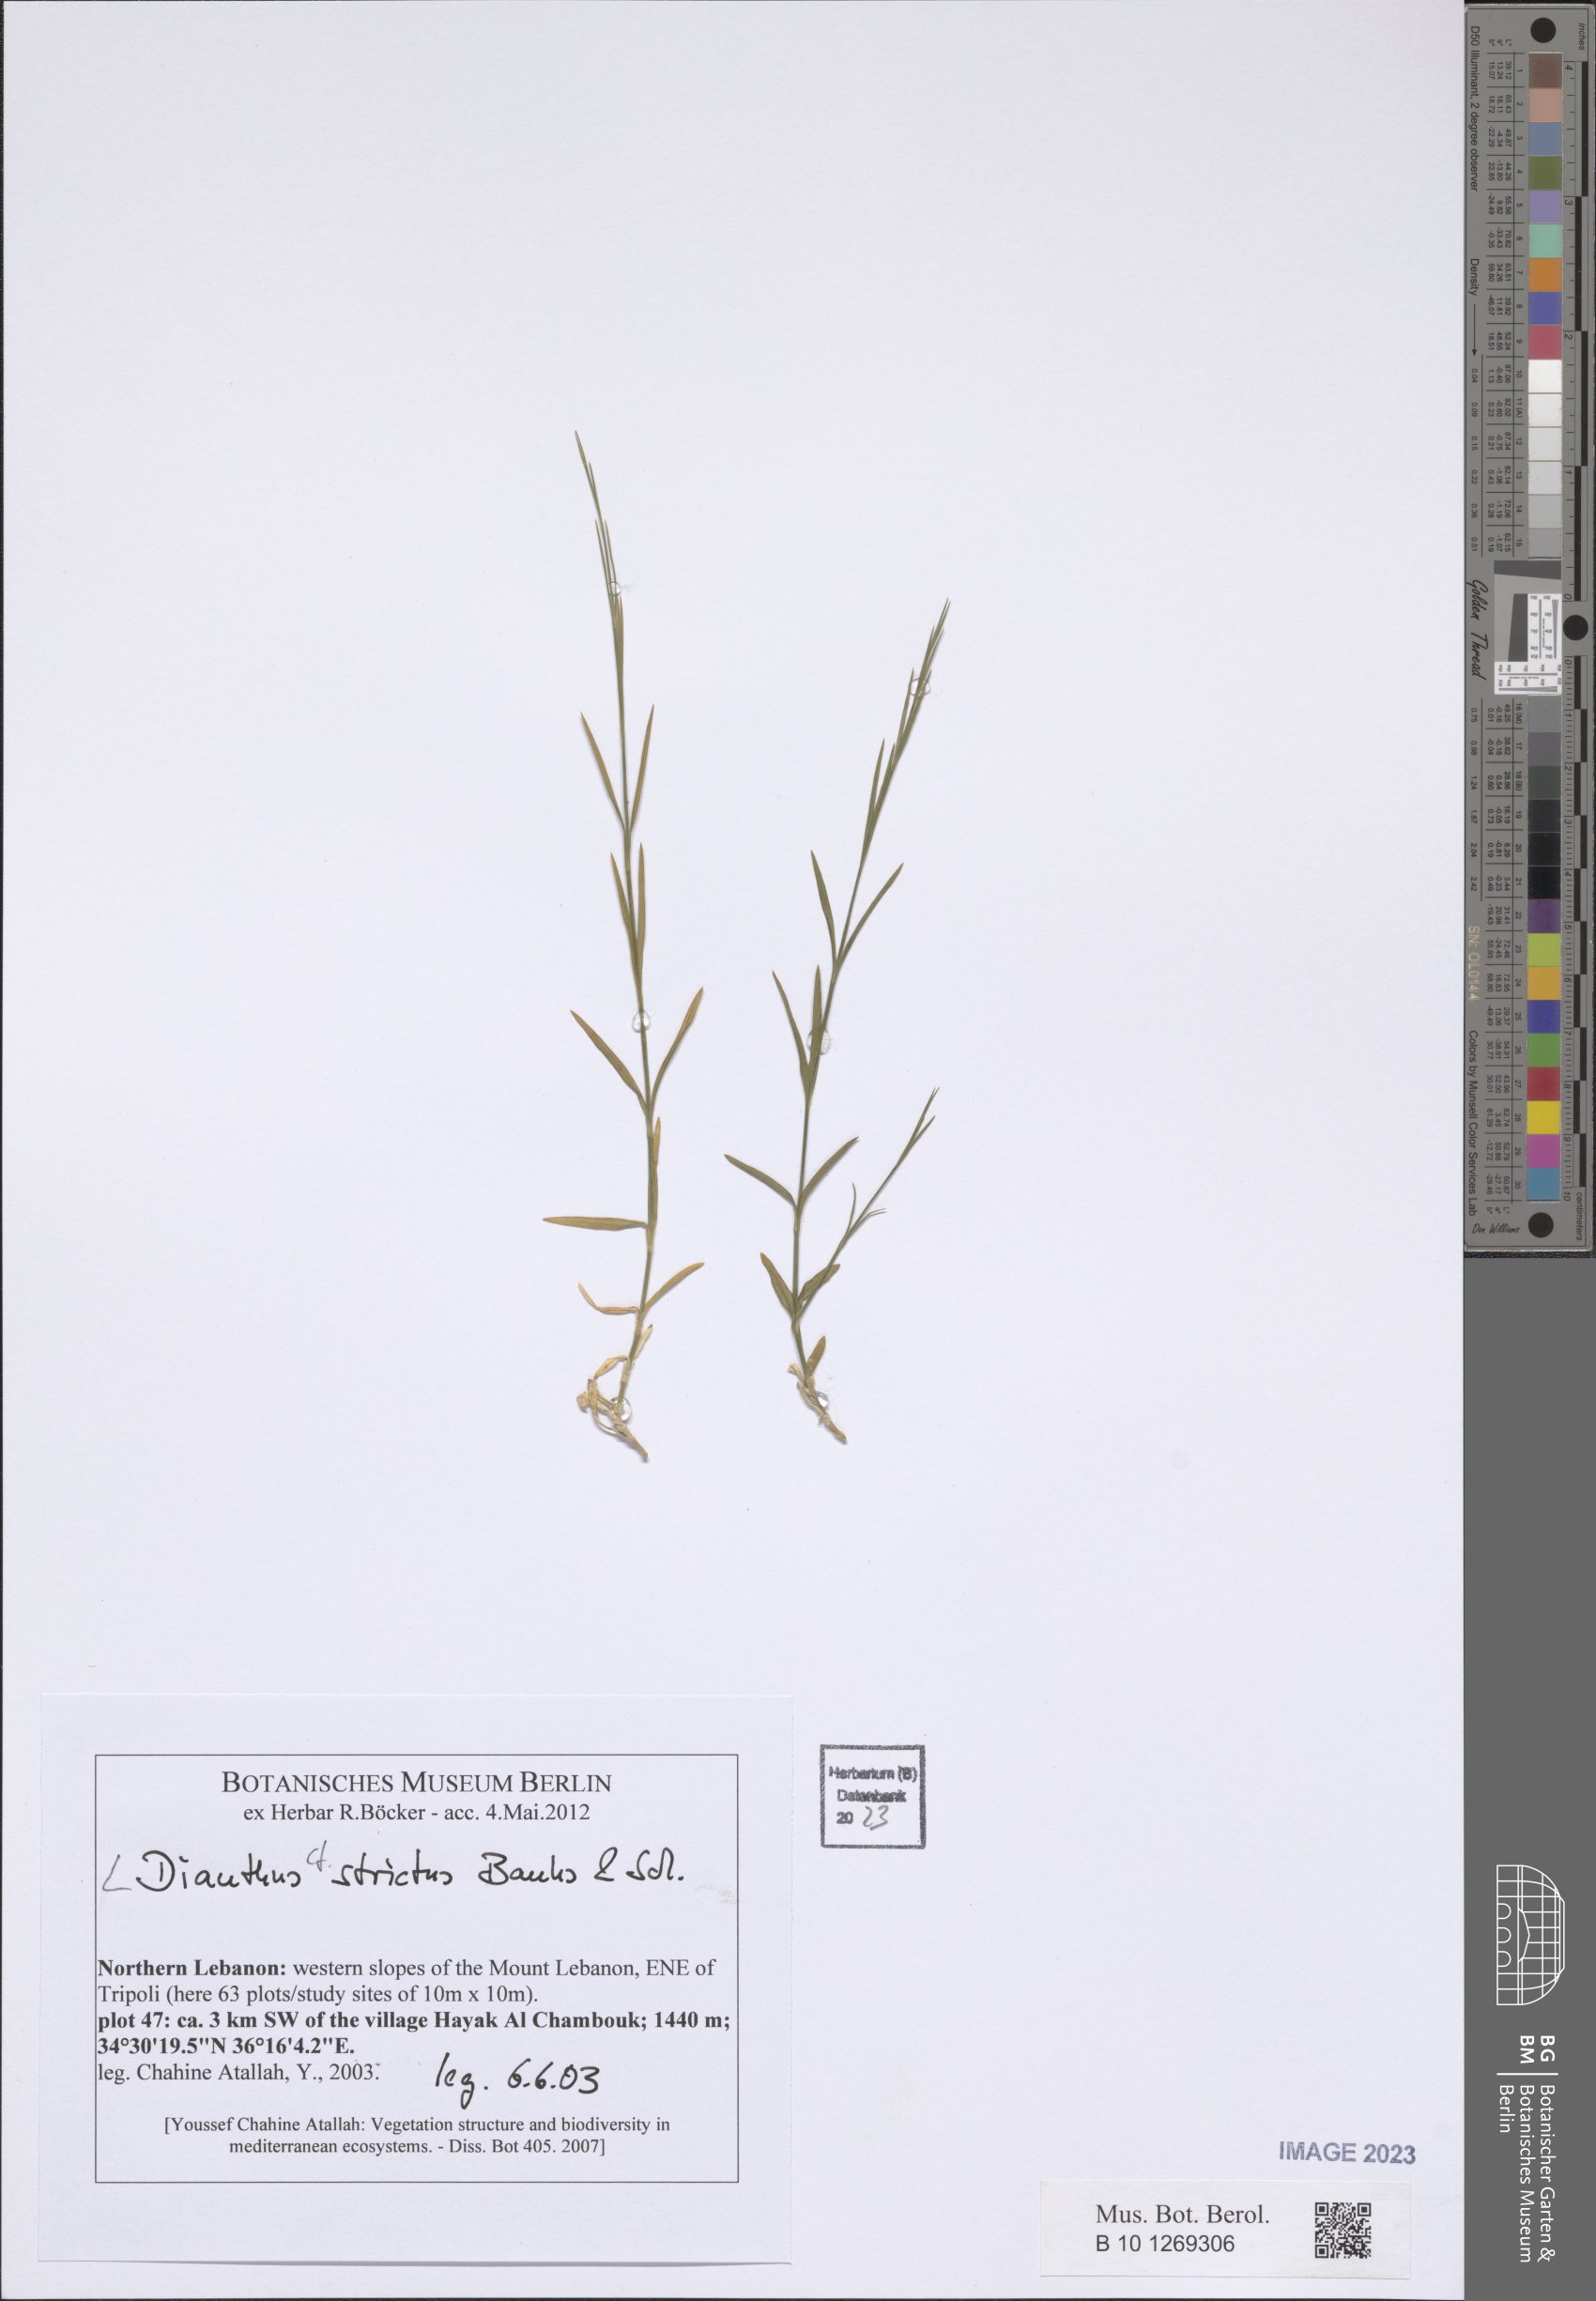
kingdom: Plantae
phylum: Tracheophyta
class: Magnoliopsida
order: Caryophyllales
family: Caryophyllaceae
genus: Dianthus
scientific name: Dianthus strictus
